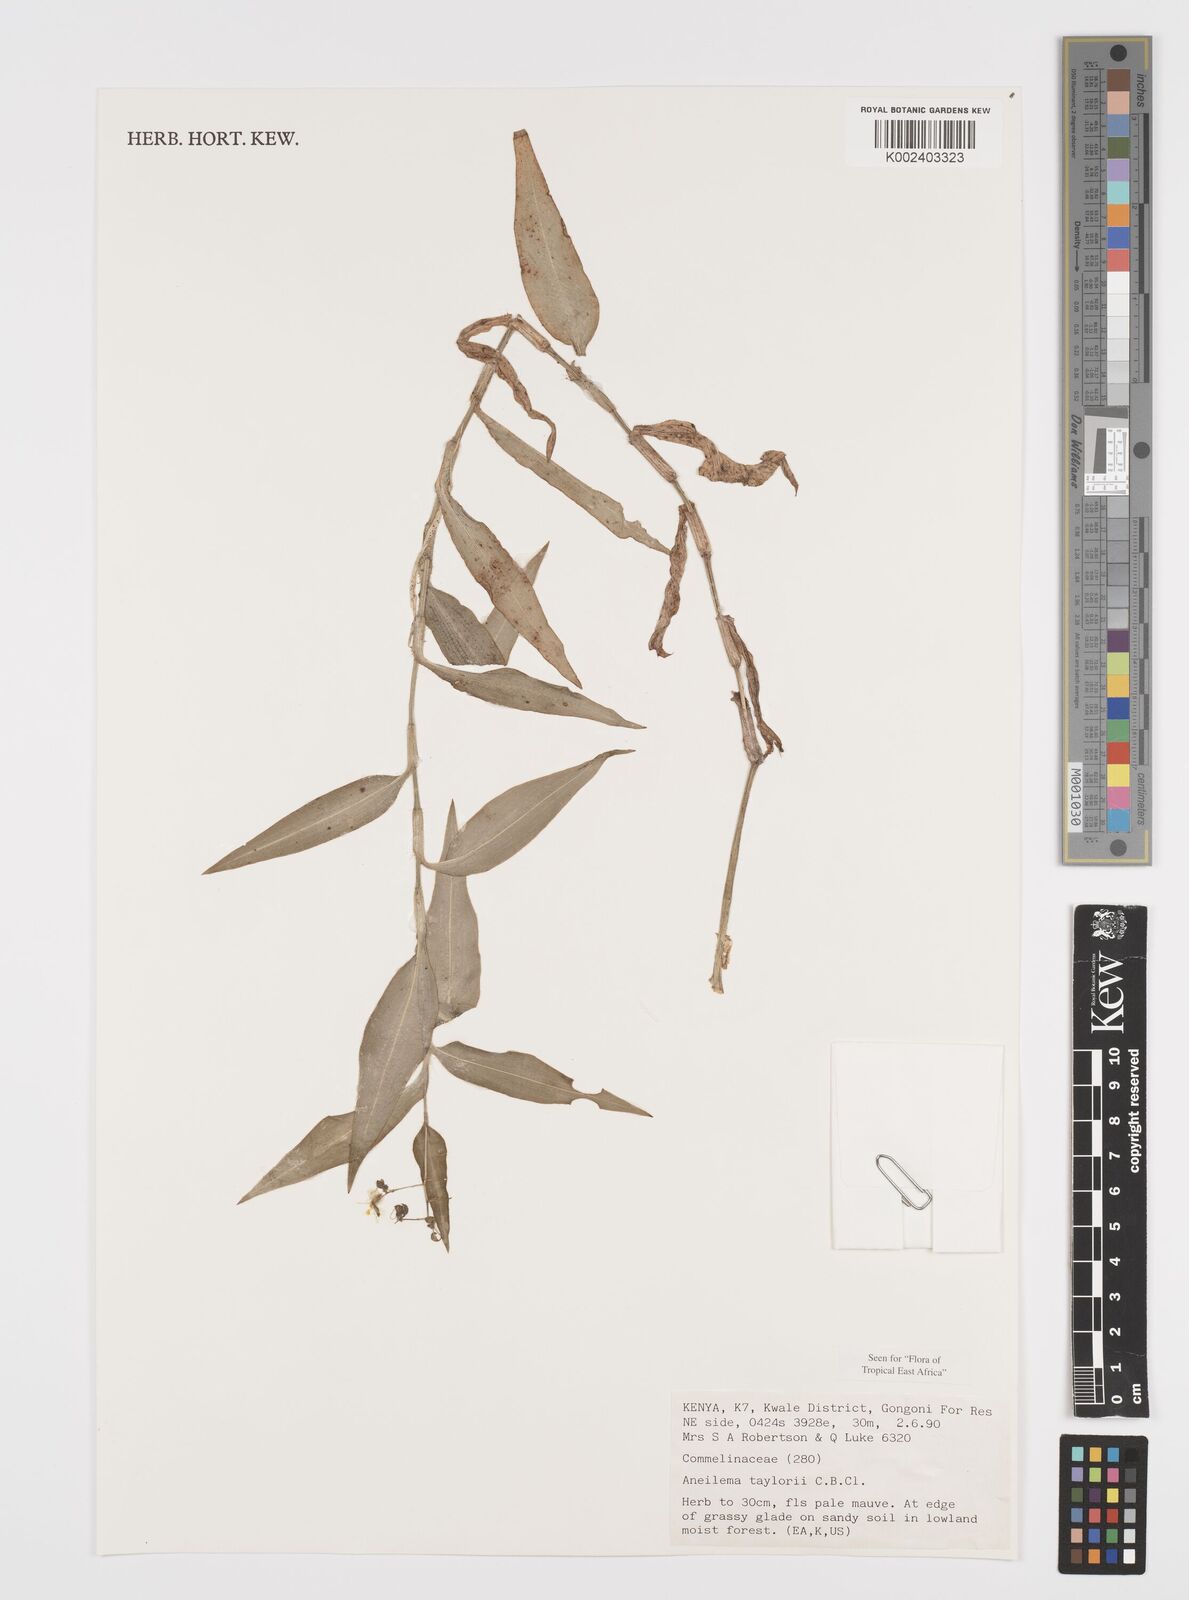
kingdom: Plantae
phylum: Tracheophyta
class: Liliopsida
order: Commelinales
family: Commelinaceae
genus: Aneilema
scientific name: Aneilema taylorii
